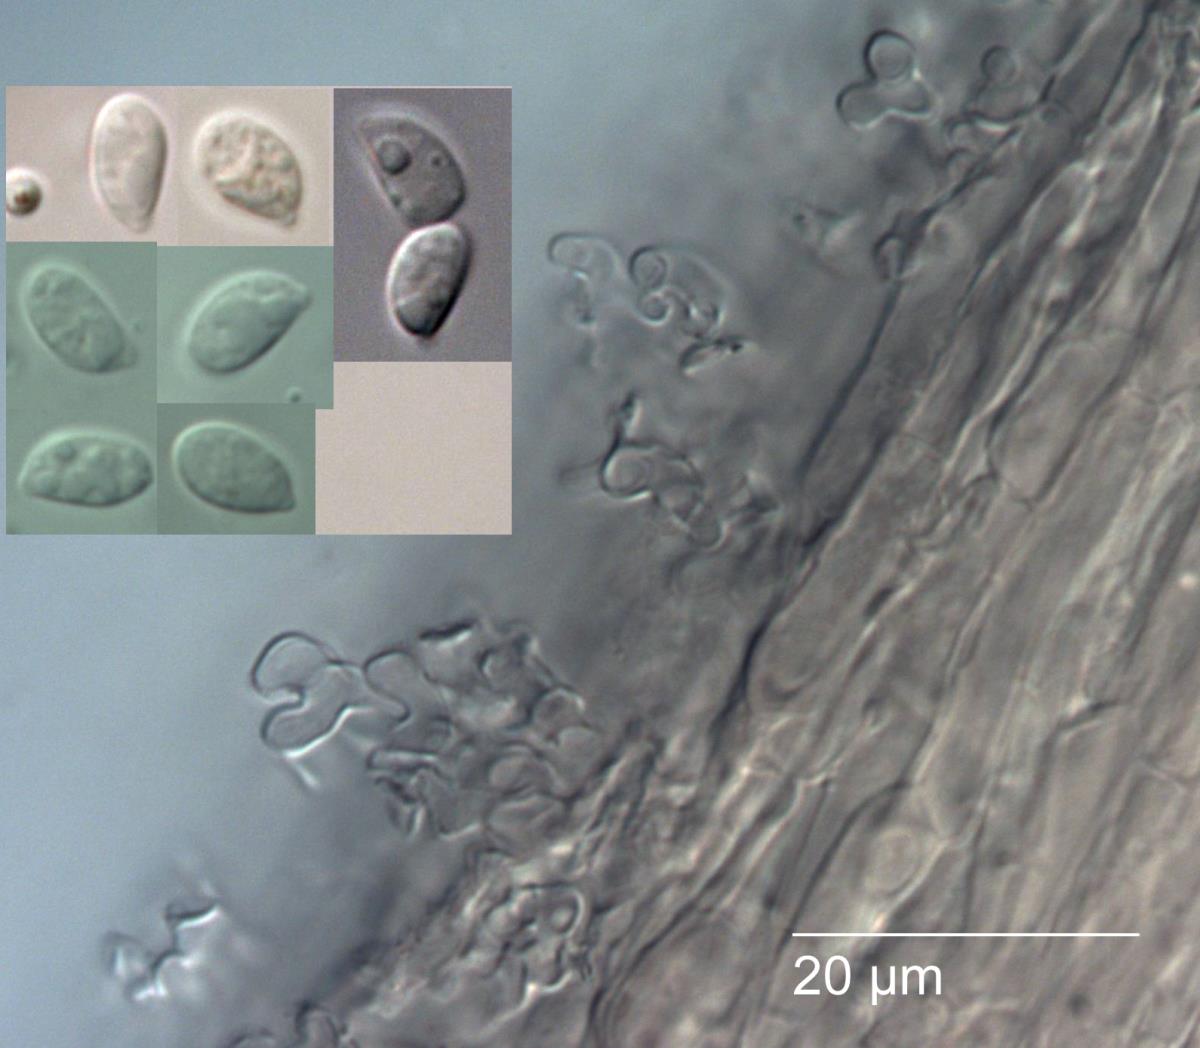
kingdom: Fungi
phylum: Basidiomycota
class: Agaricomycetes
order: Agaricales
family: Omphalotaceae
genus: Marasmiellus
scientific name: Marasmiellus
